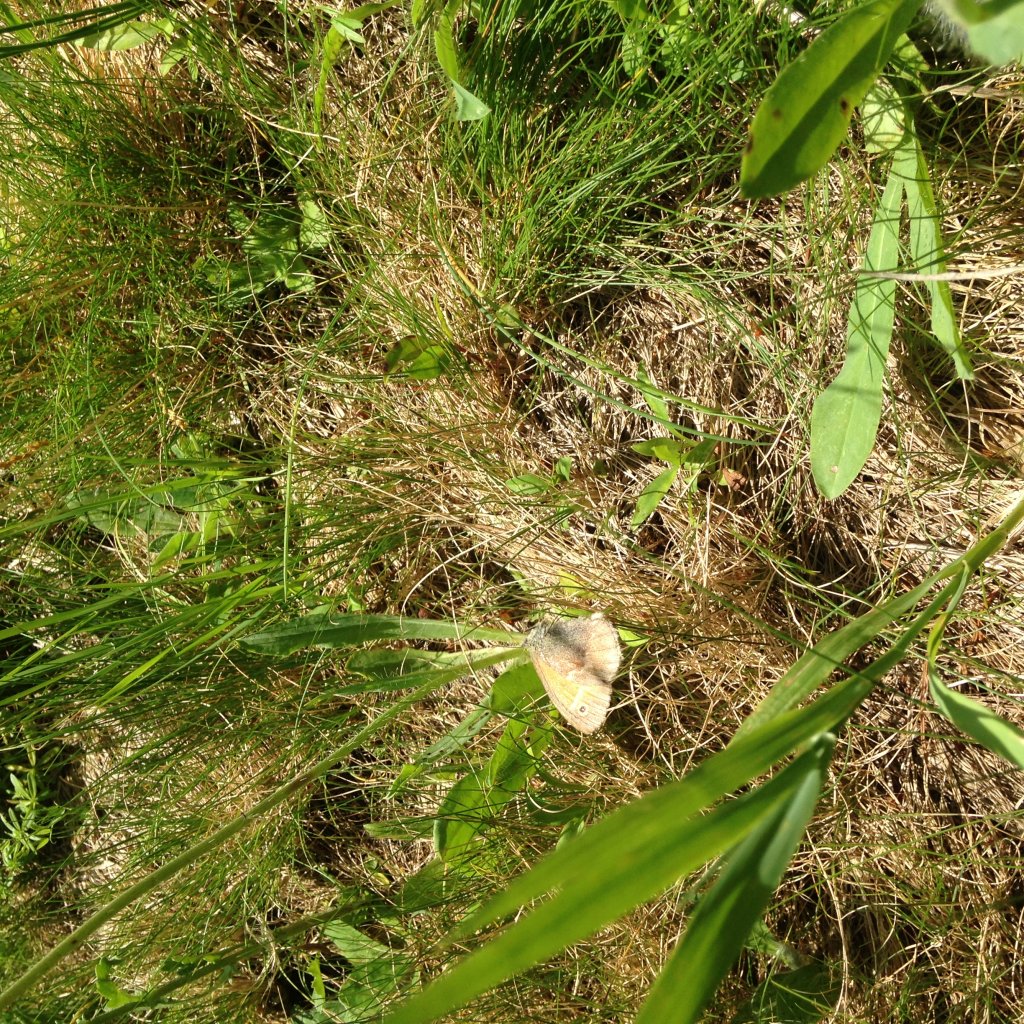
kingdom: Animalia
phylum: Arthropoda
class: Insecta
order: Lepidoptera
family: Nymphalidae
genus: Coenonympha
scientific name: Coenonympha tullia
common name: Large Heath
